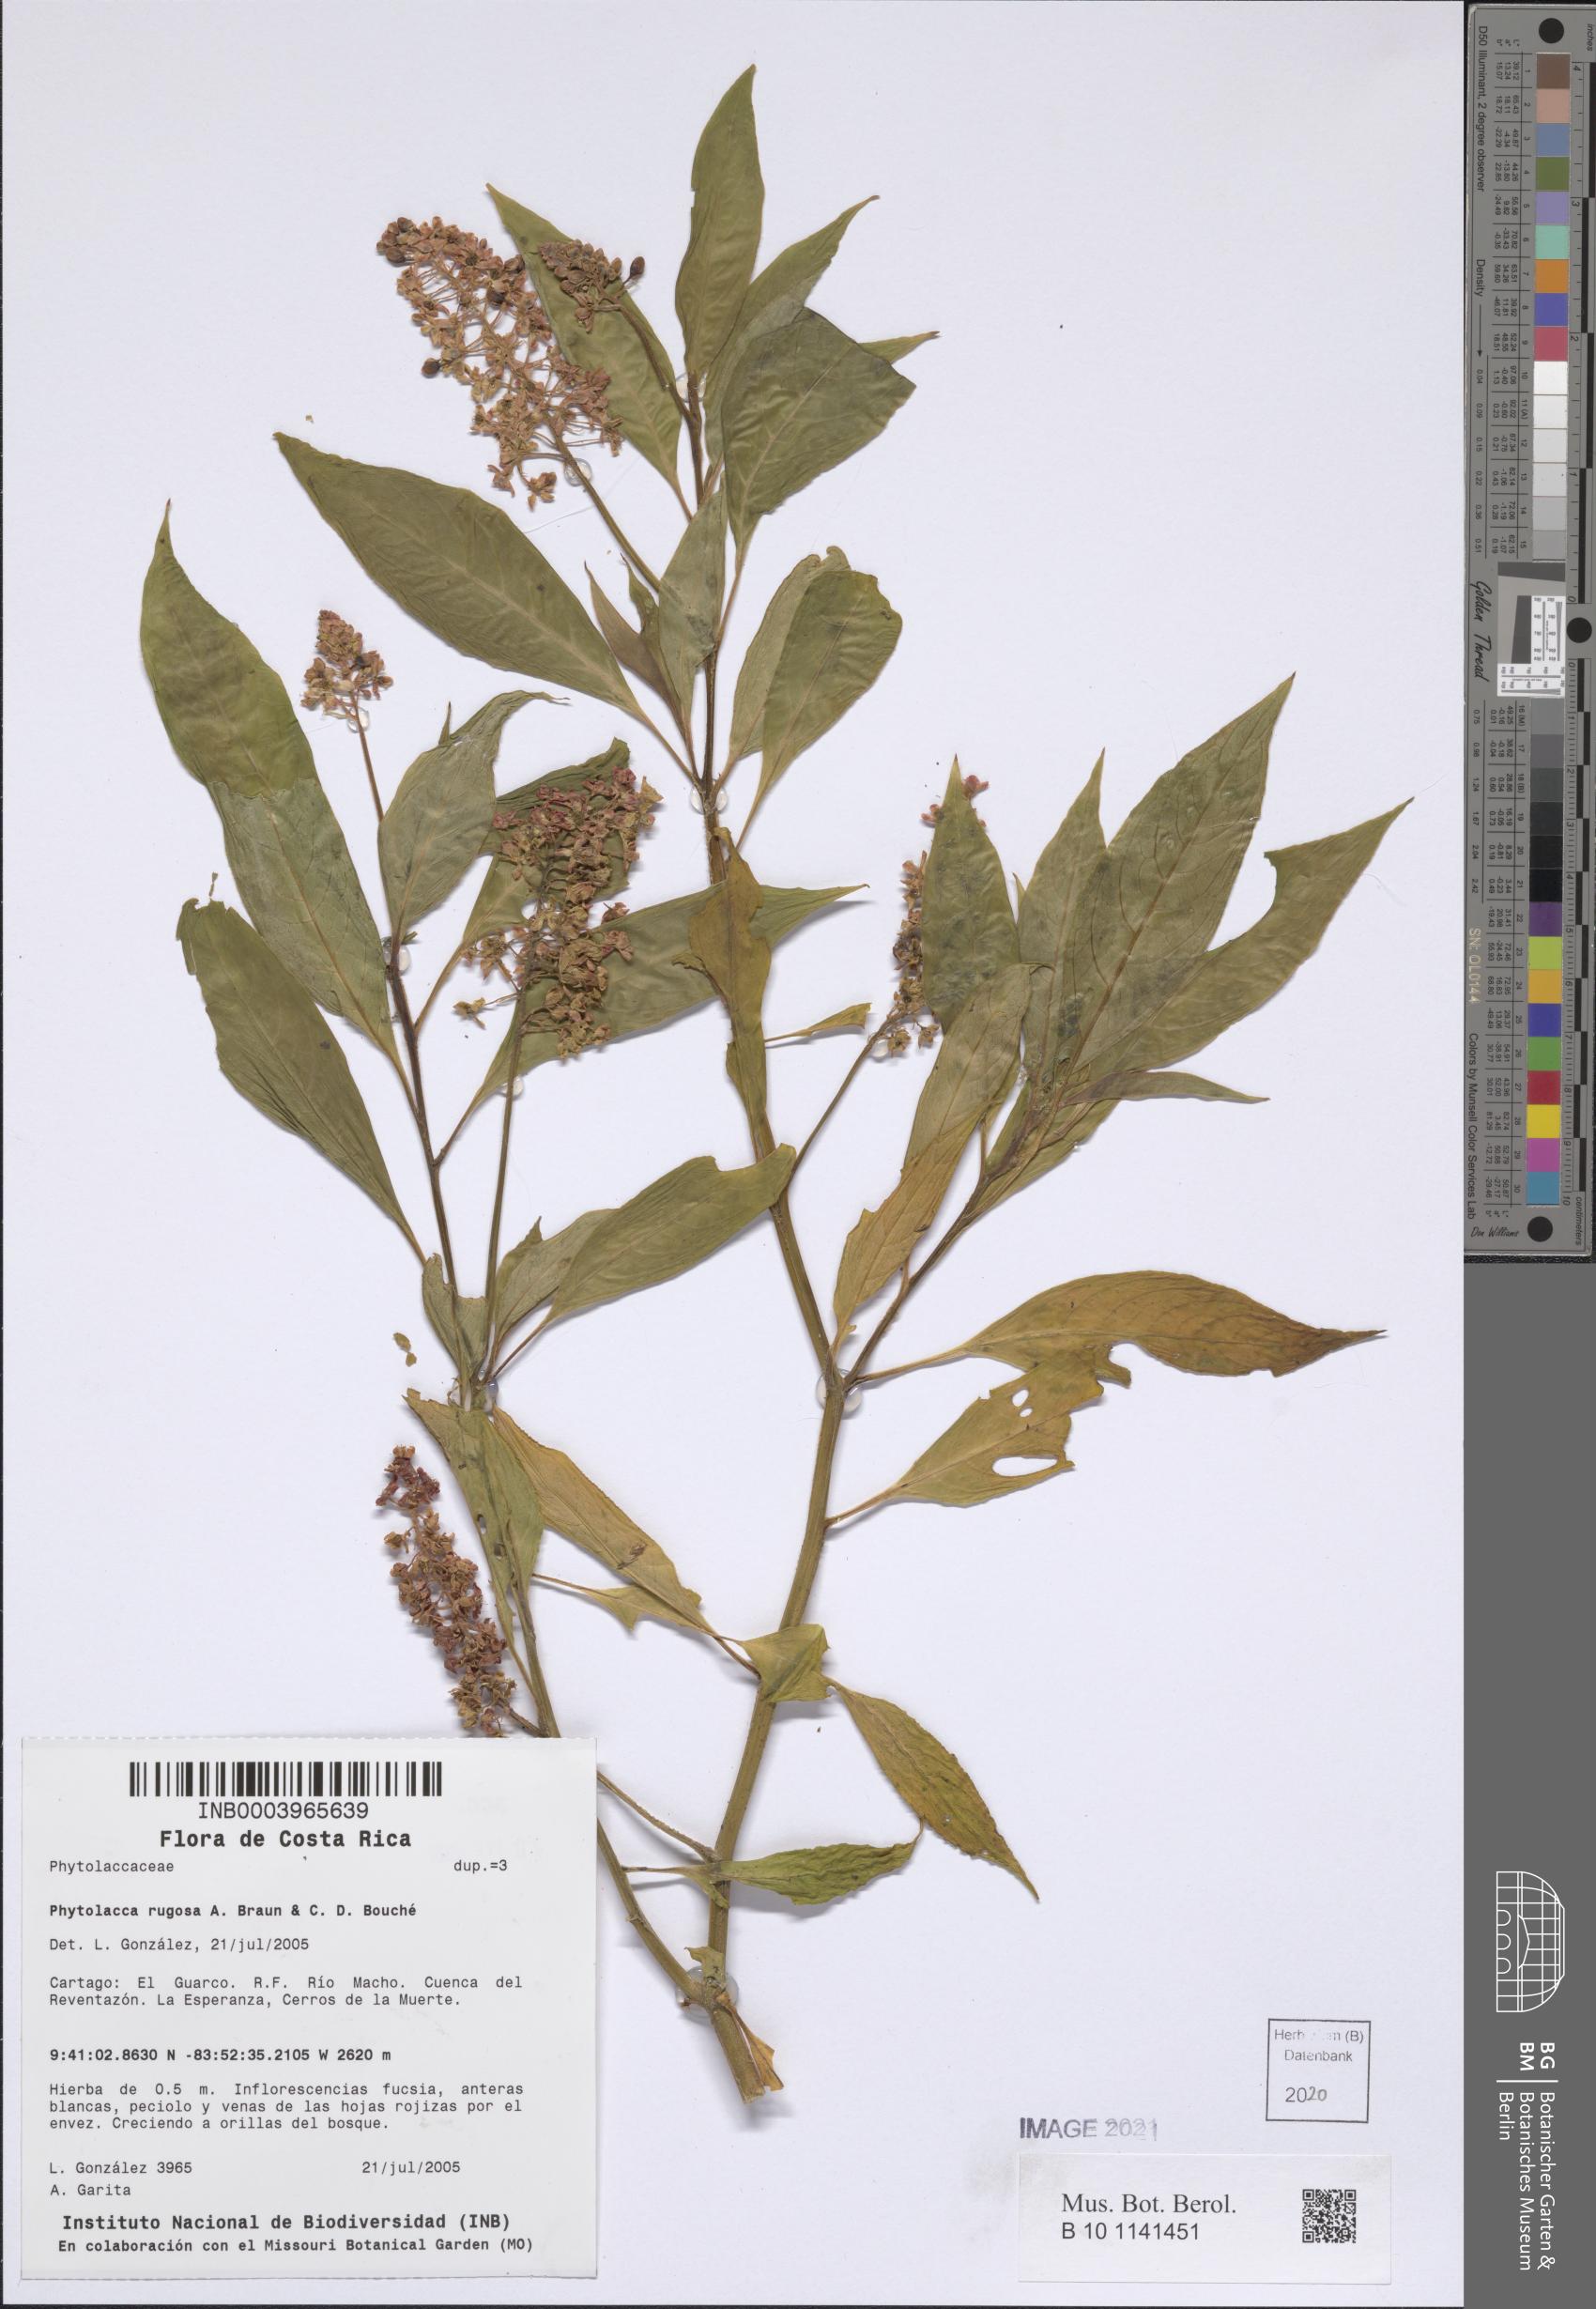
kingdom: Plantae
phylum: Tracheophyta
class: Magnoliopsida
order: Caryophyllales
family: Phytolaccaceae
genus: Phytolacca
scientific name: Phytolacca rugosa
